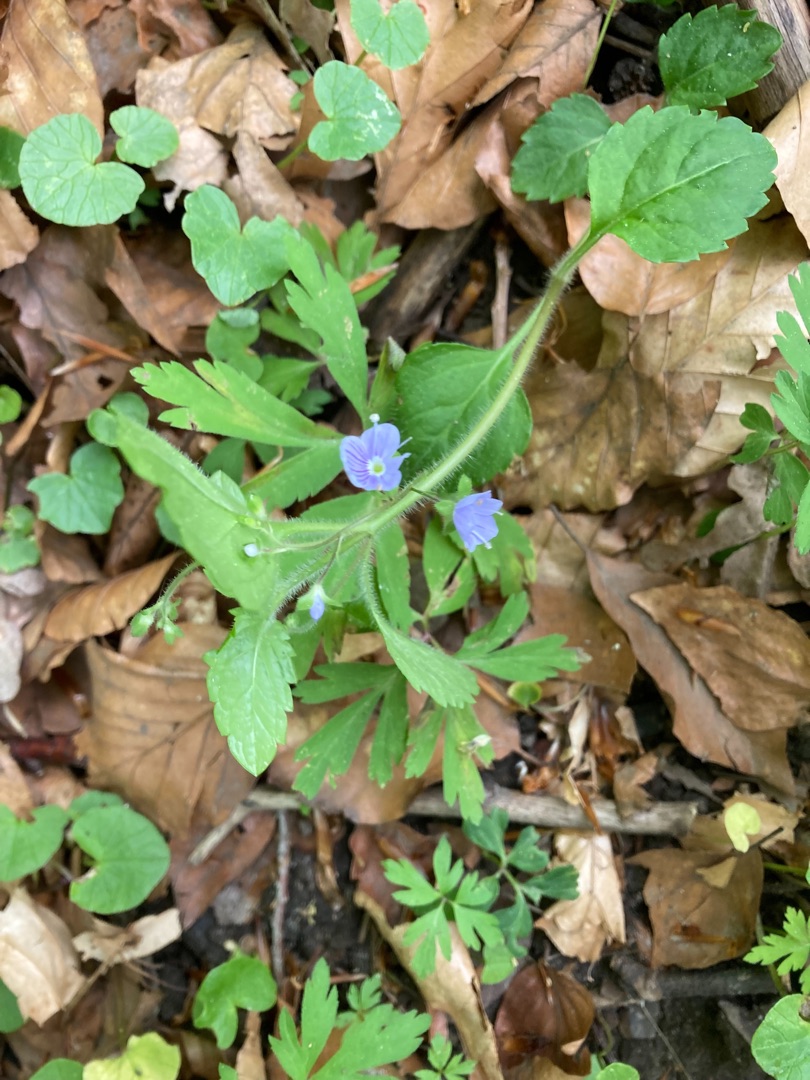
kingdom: Plantae
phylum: Tracheophyta
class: Magnoliopsida
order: Lamiales
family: Plantaginaceae
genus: Veronica
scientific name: Veronica montana
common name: Bjerg-ærenpris
